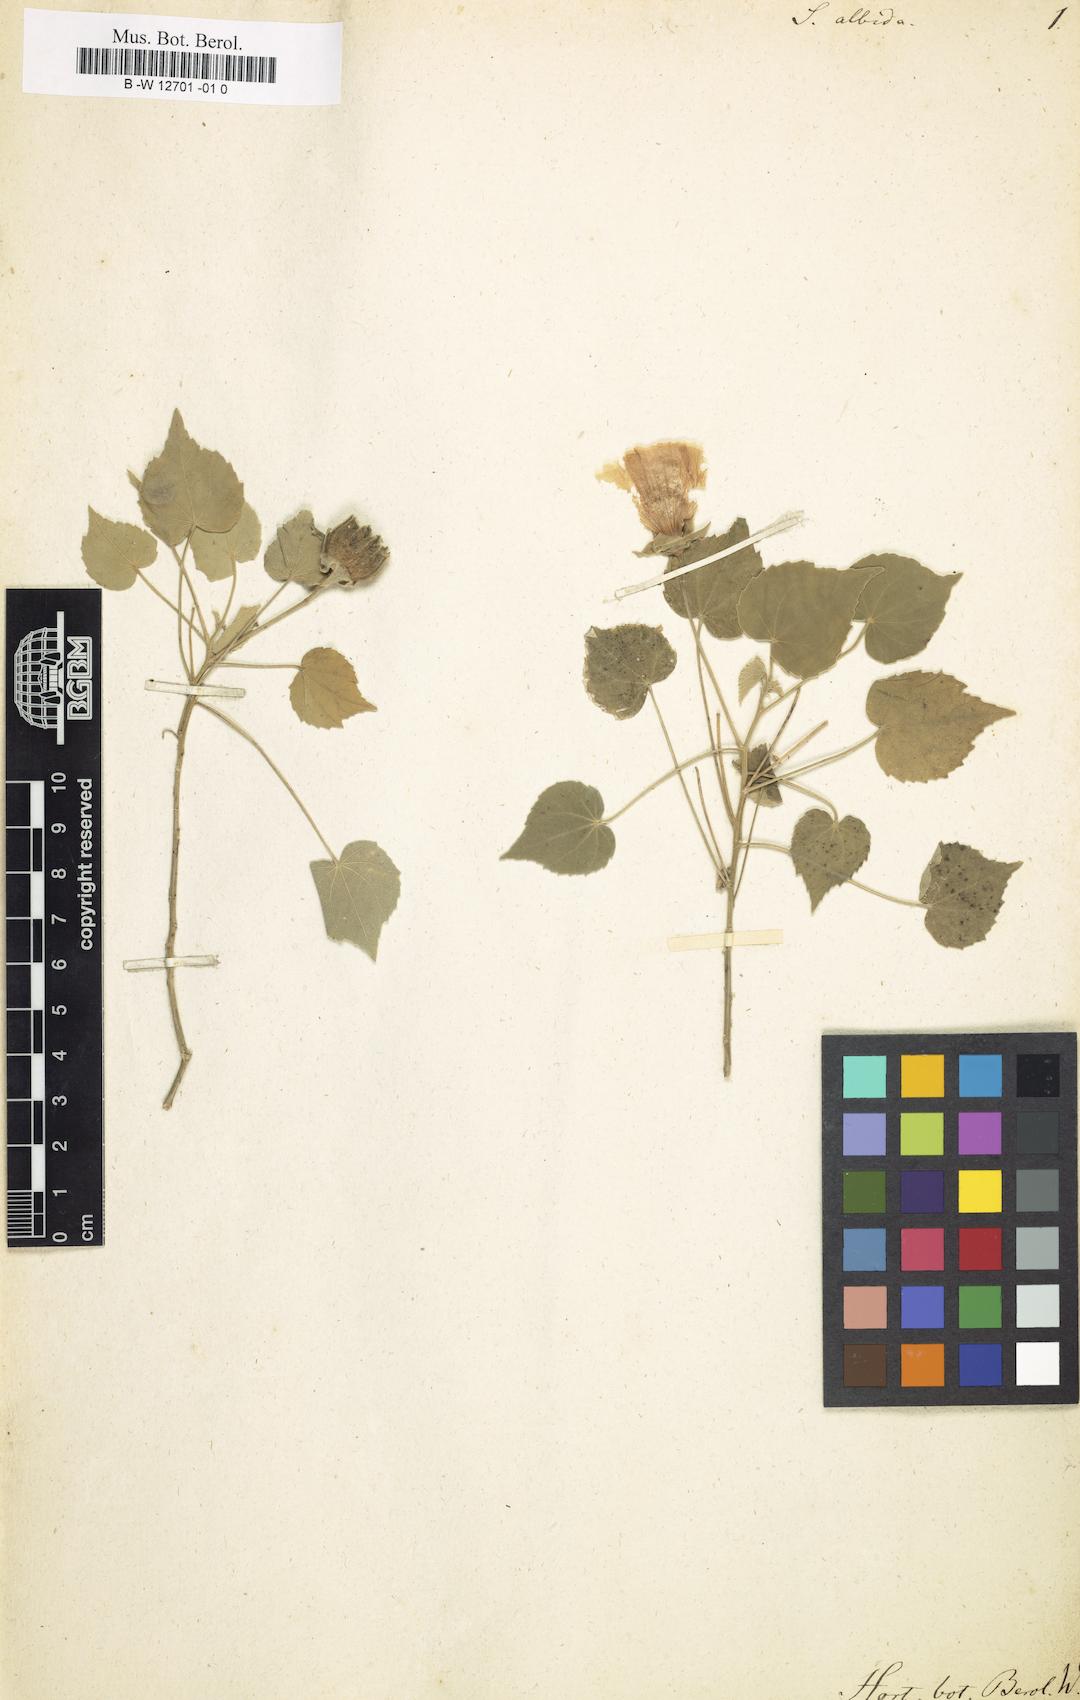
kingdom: Plantae
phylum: Tracheophyta
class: Magnoliopsida
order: Malvales
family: Malvaceae
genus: Abutilon
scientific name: Abutilon albidum
